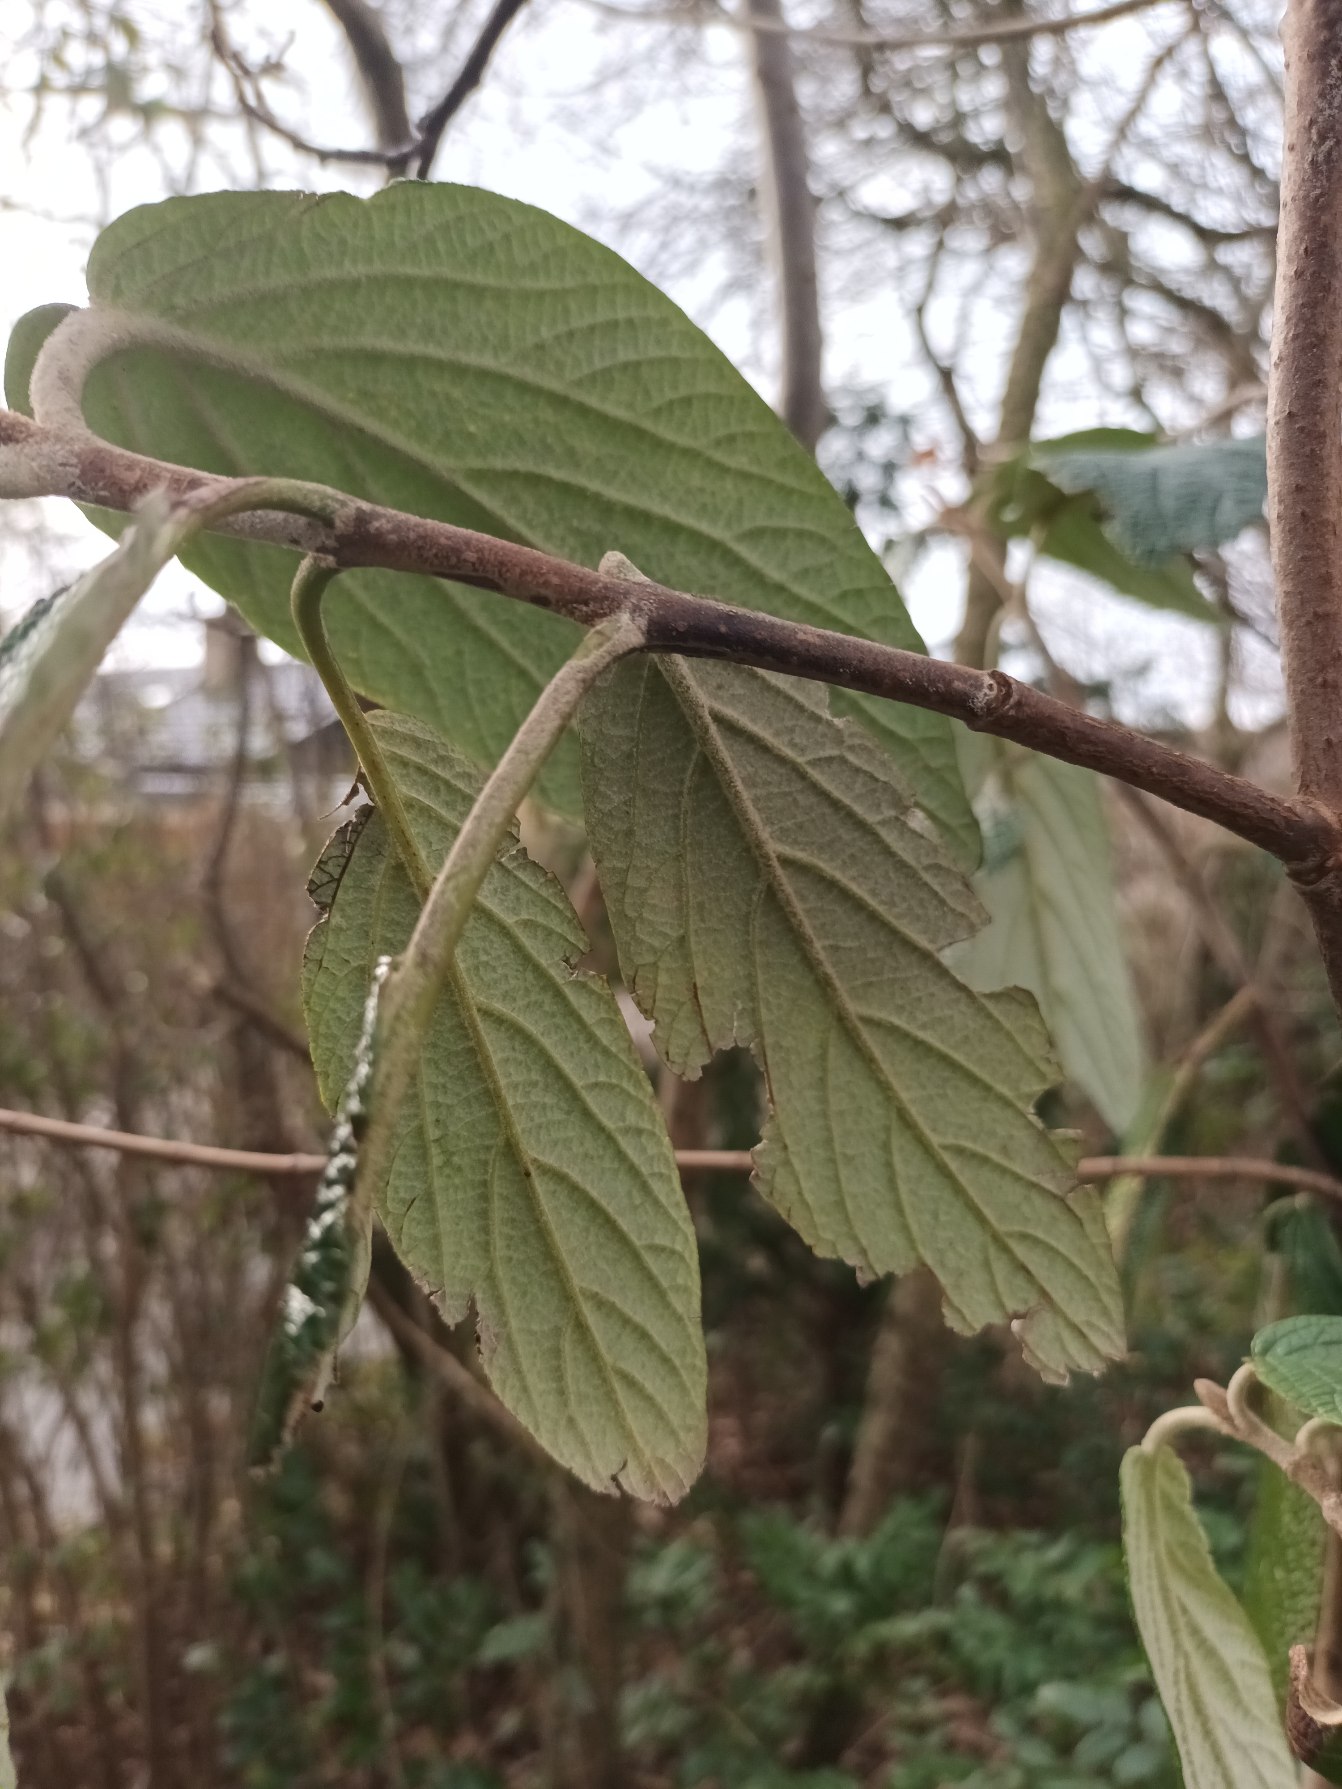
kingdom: Plantae
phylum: Tracheophyta
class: Magnoliopsida
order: Dipsacales
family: Viburnaceae
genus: Viburnum
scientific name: Viburnum rhytidophyllum
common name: Rynkeblad
